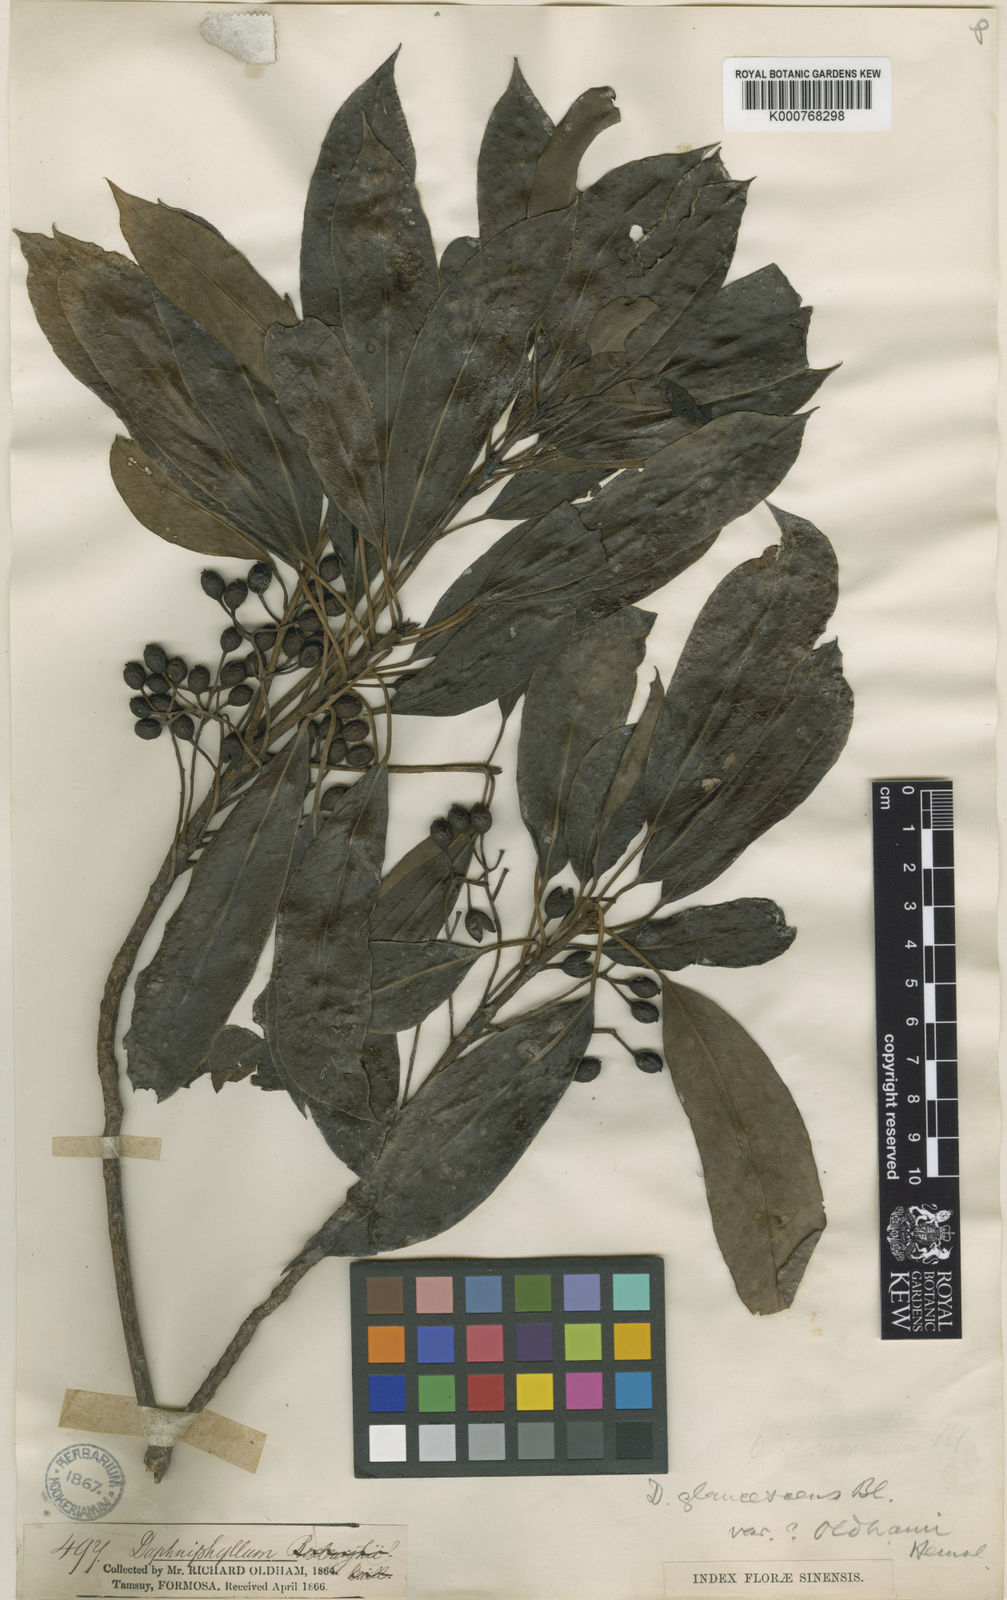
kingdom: Plantae
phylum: Tracheophyta
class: Magnoliopsida
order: Saxifragales
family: Daphniphyllaceae
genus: Daphniphyllum
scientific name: Daphniphyllum pentandrum
